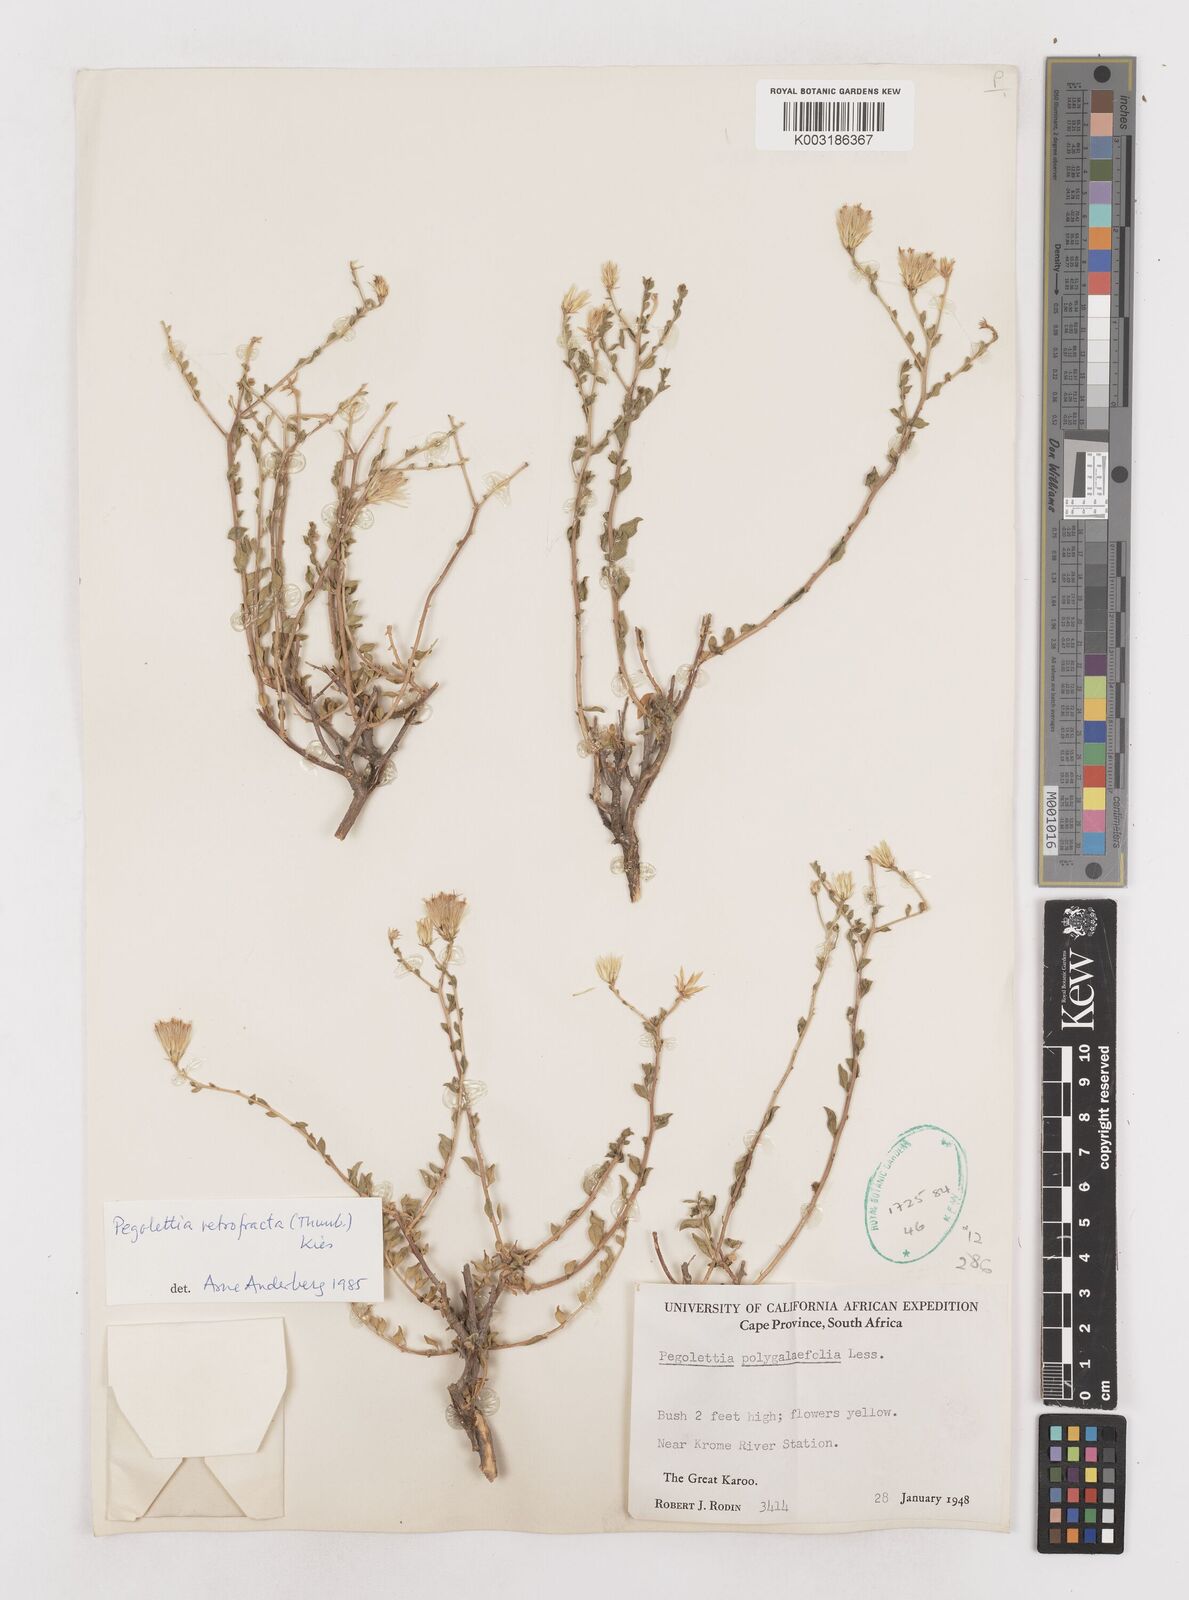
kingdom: Plantae
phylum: Tracheophyta
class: Magnoliopsida
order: Asterales
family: Asteraceae
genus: Pegolettia
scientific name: Pegolettia retrofracta
